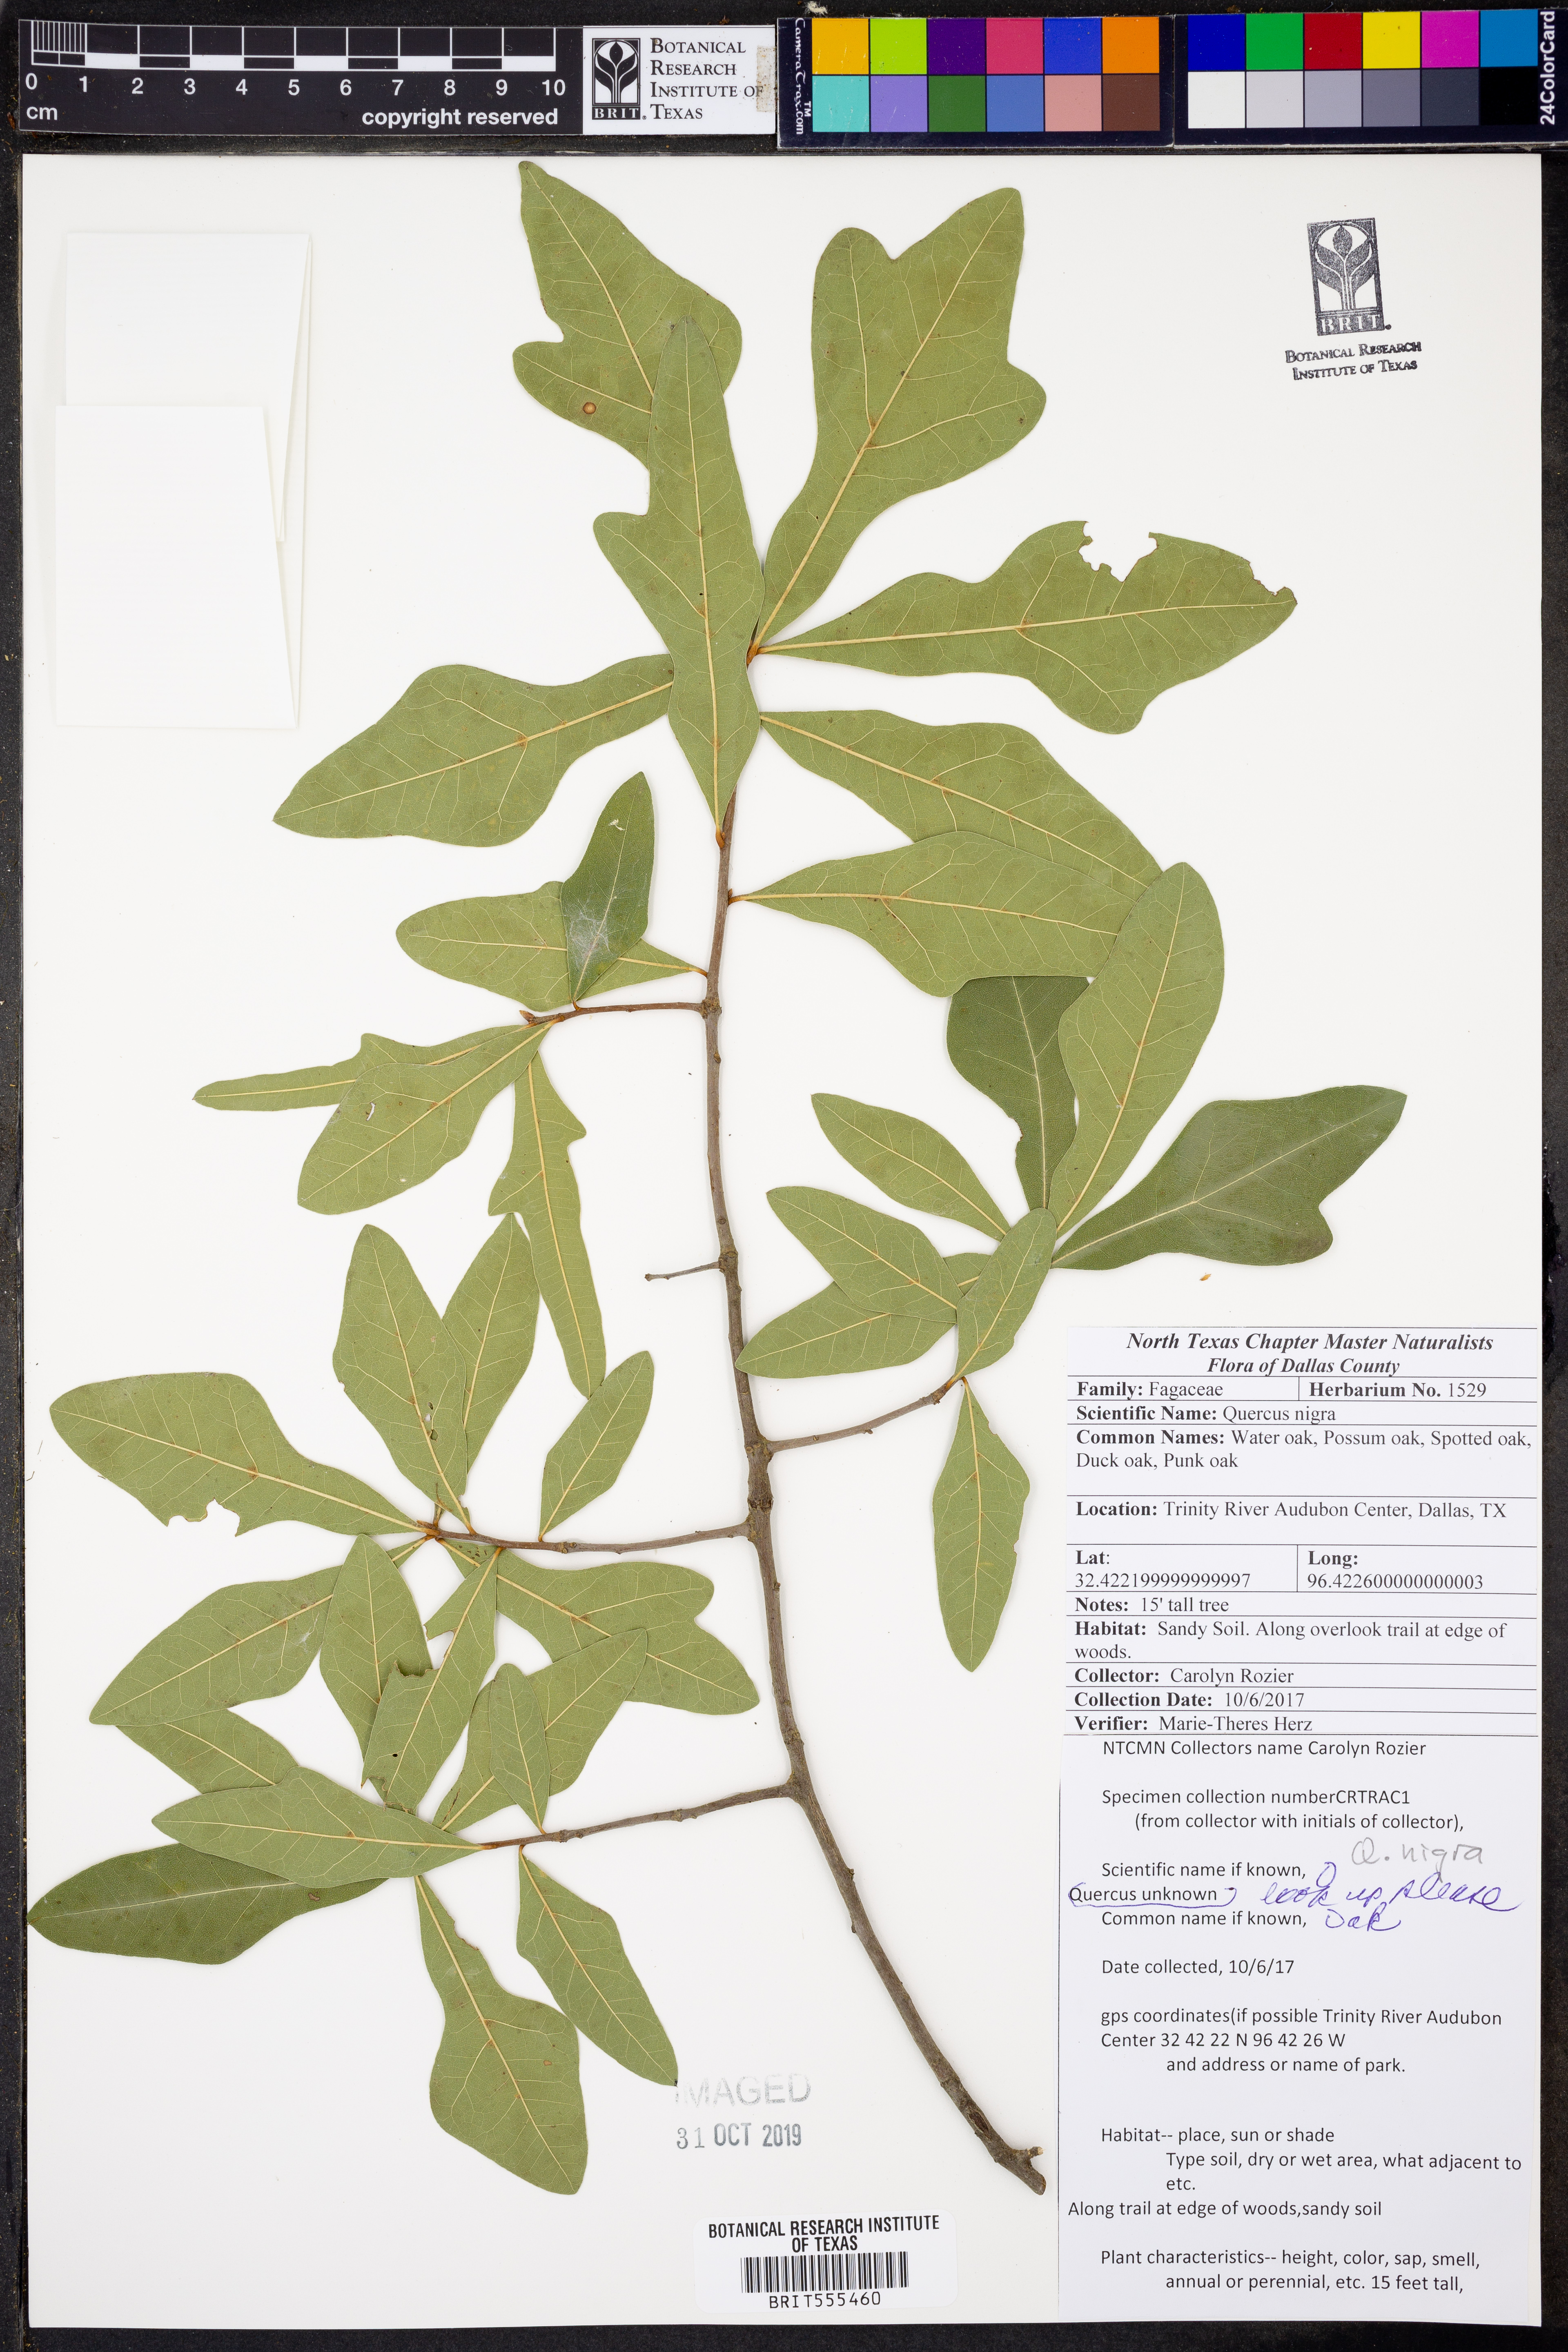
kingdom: Plantae
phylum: Tracheophyta
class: Magnoliopsida
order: Fagales
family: Fagaceae
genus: Quercus
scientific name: Quercus nigra
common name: Water oak
